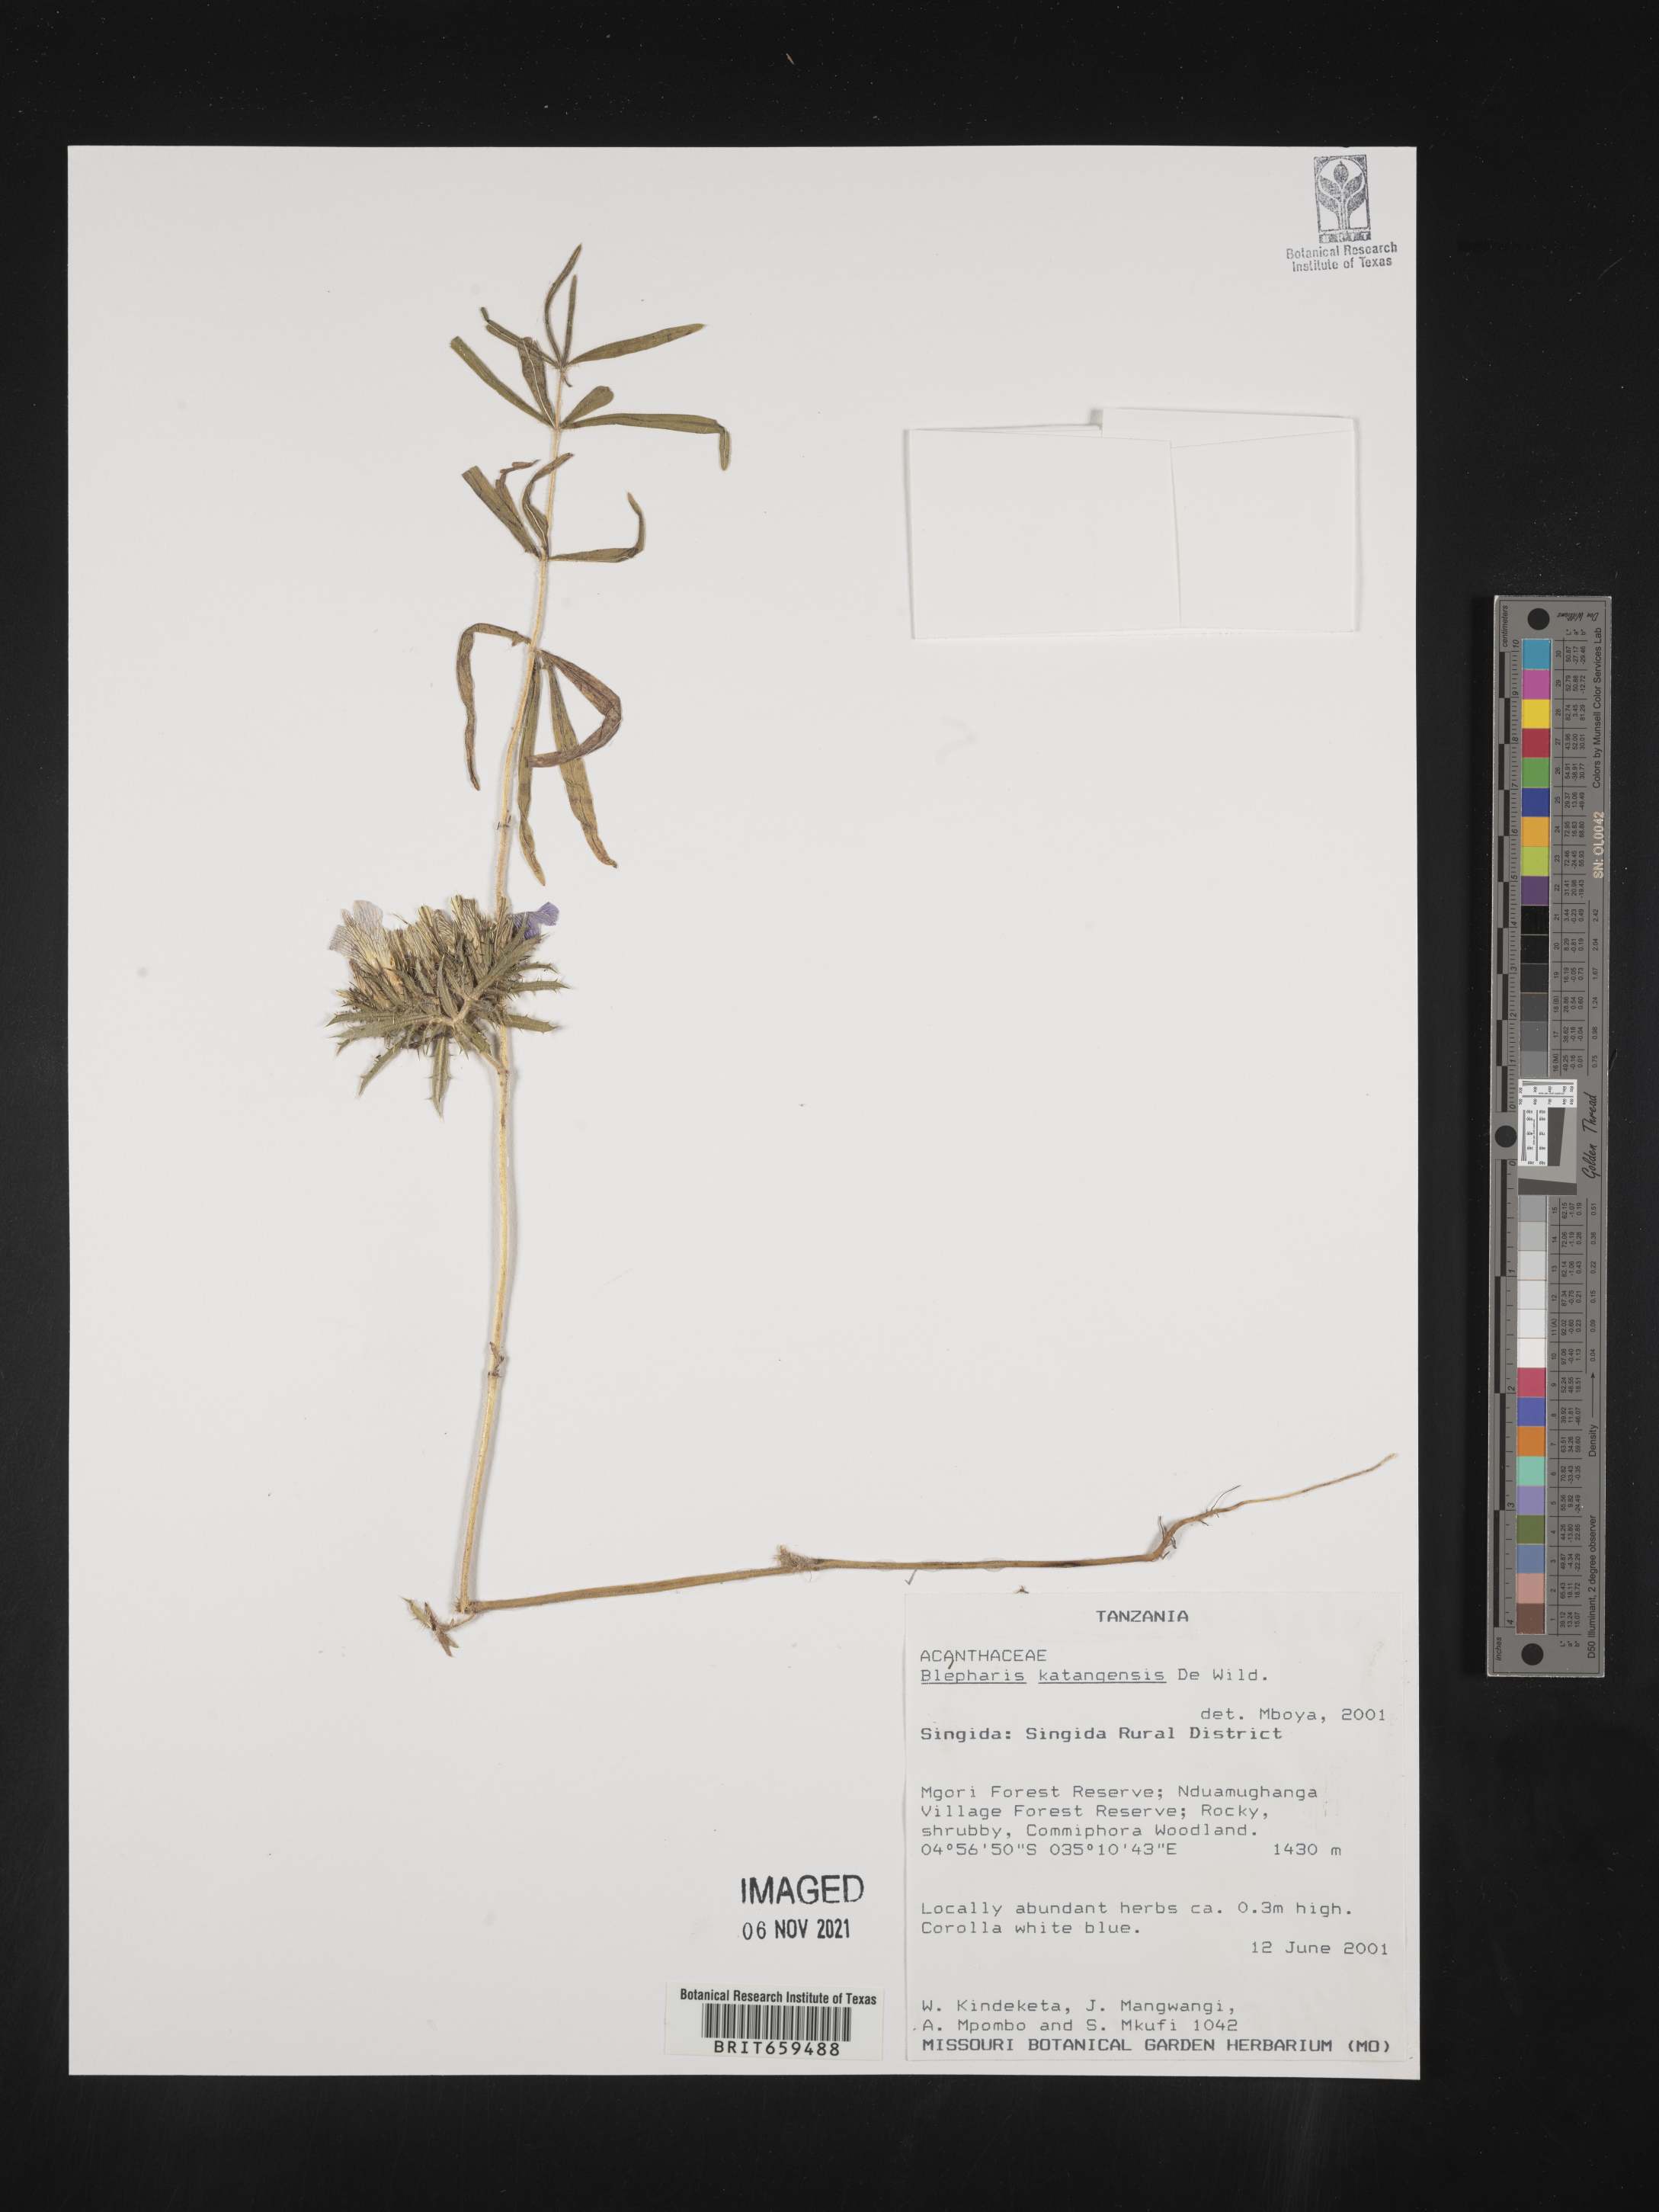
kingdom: Plantae
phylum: Tracheophyta
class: Magnoliopsida
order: Lamiales
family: Acanthaceae
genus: Blepharis
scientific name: Blepharis katangensis
